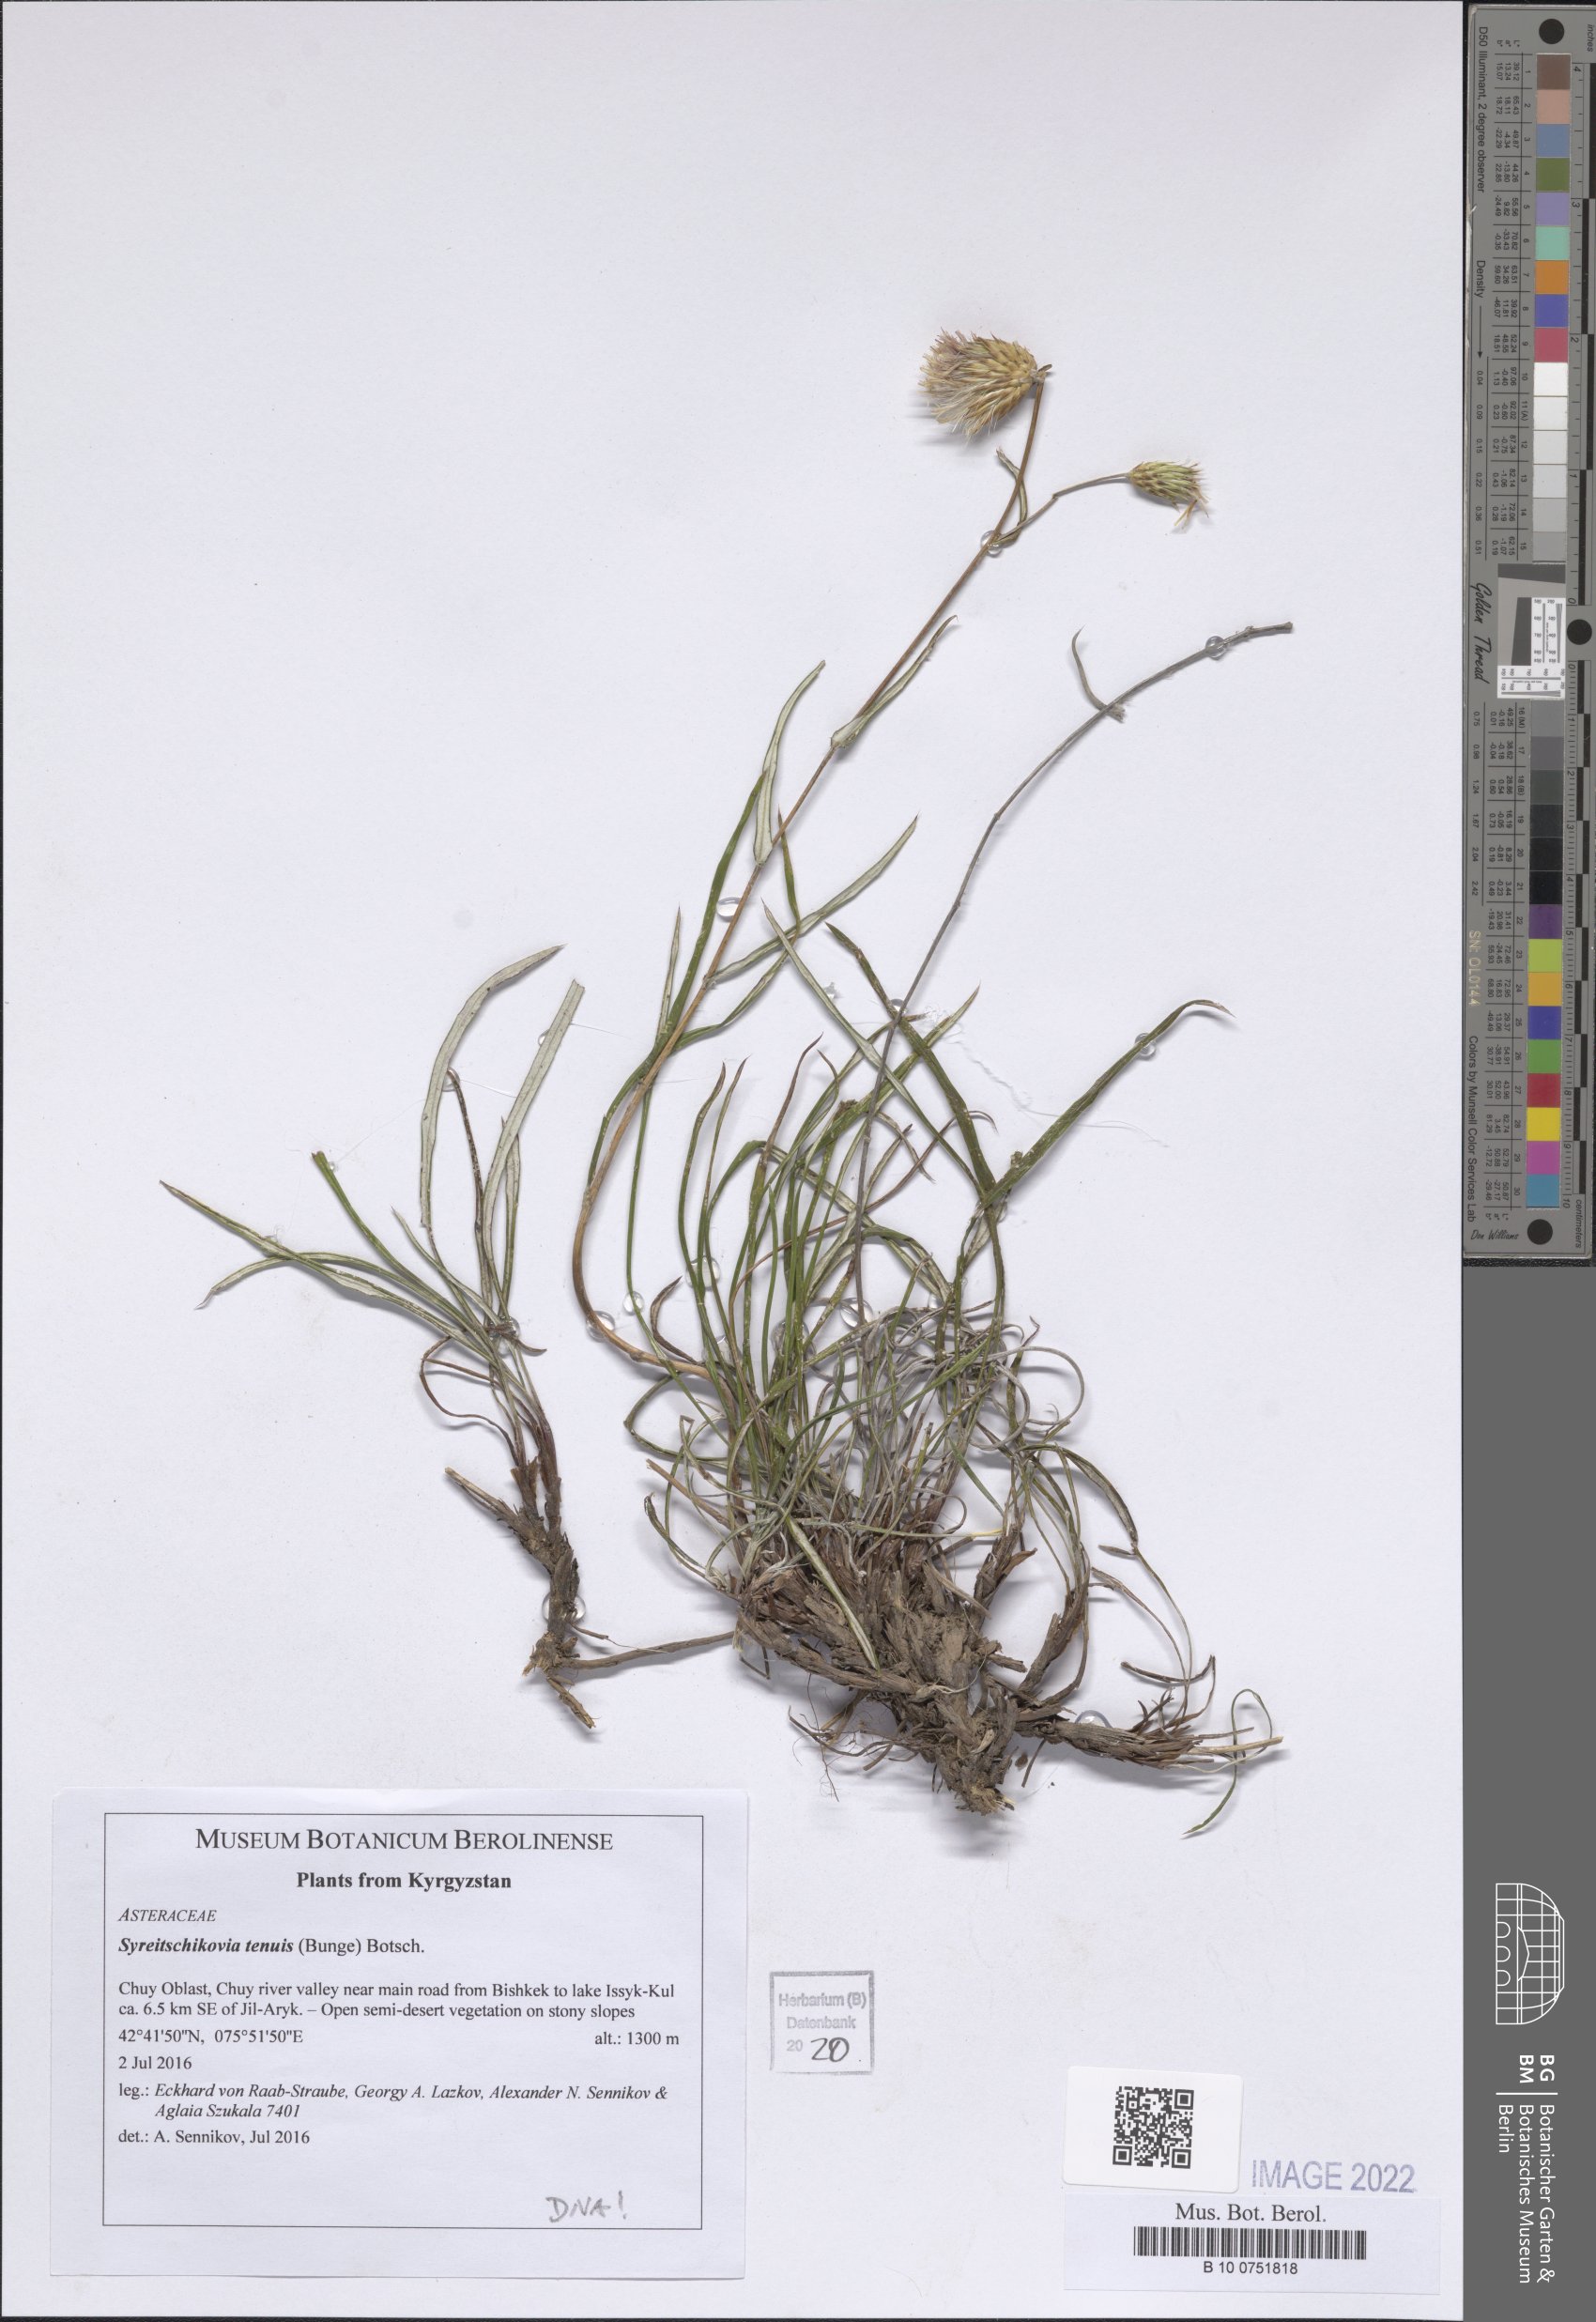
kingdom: Plantae
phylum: Tracheophyta
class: Magnoliopsida
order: Asterales
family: Asteraceae
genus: Syreitschikovia
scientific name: Syreitschikovia tenuifolia
